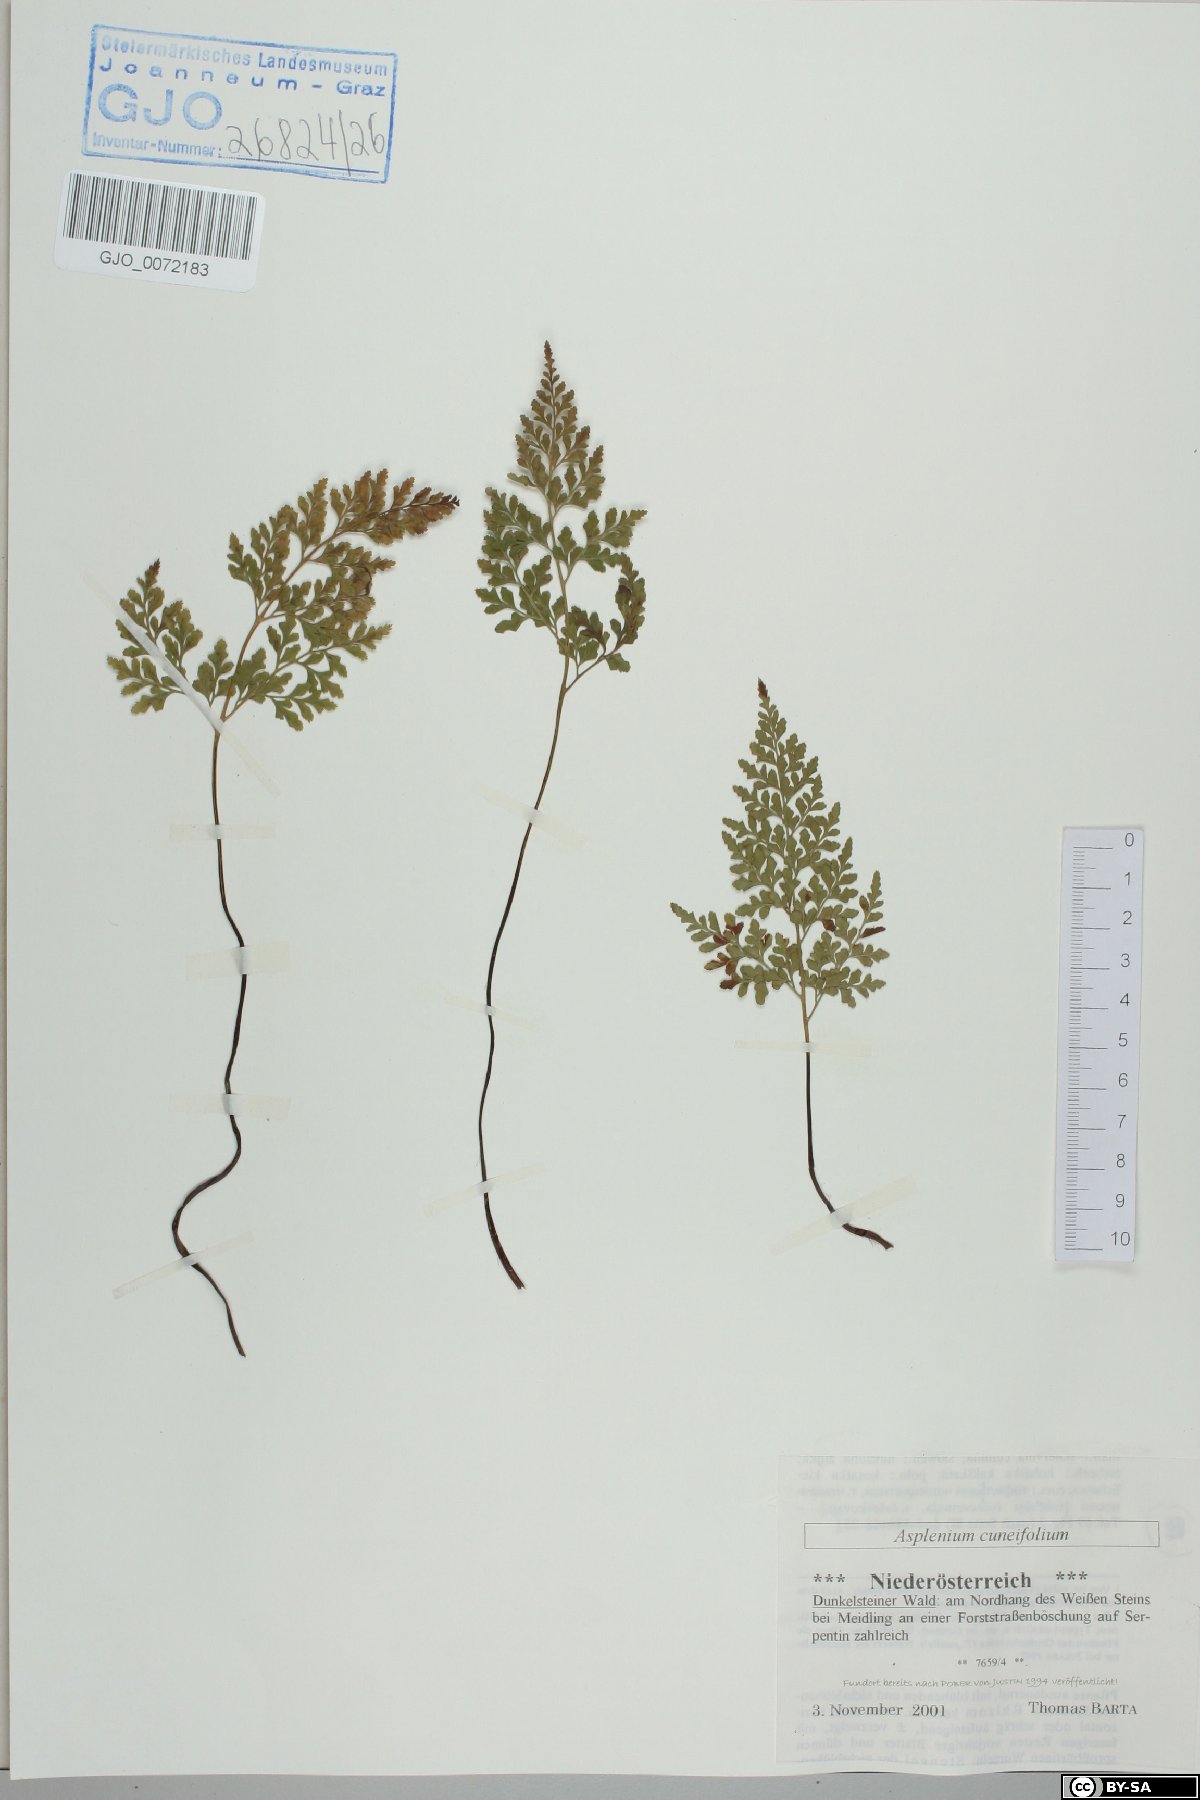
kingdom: Plantae
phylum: Tracheophyta
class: Polypodiopsida
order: Polypodiales
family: Aspleniaceae
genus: Asplenium
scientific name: Asplenium cuneifolium
